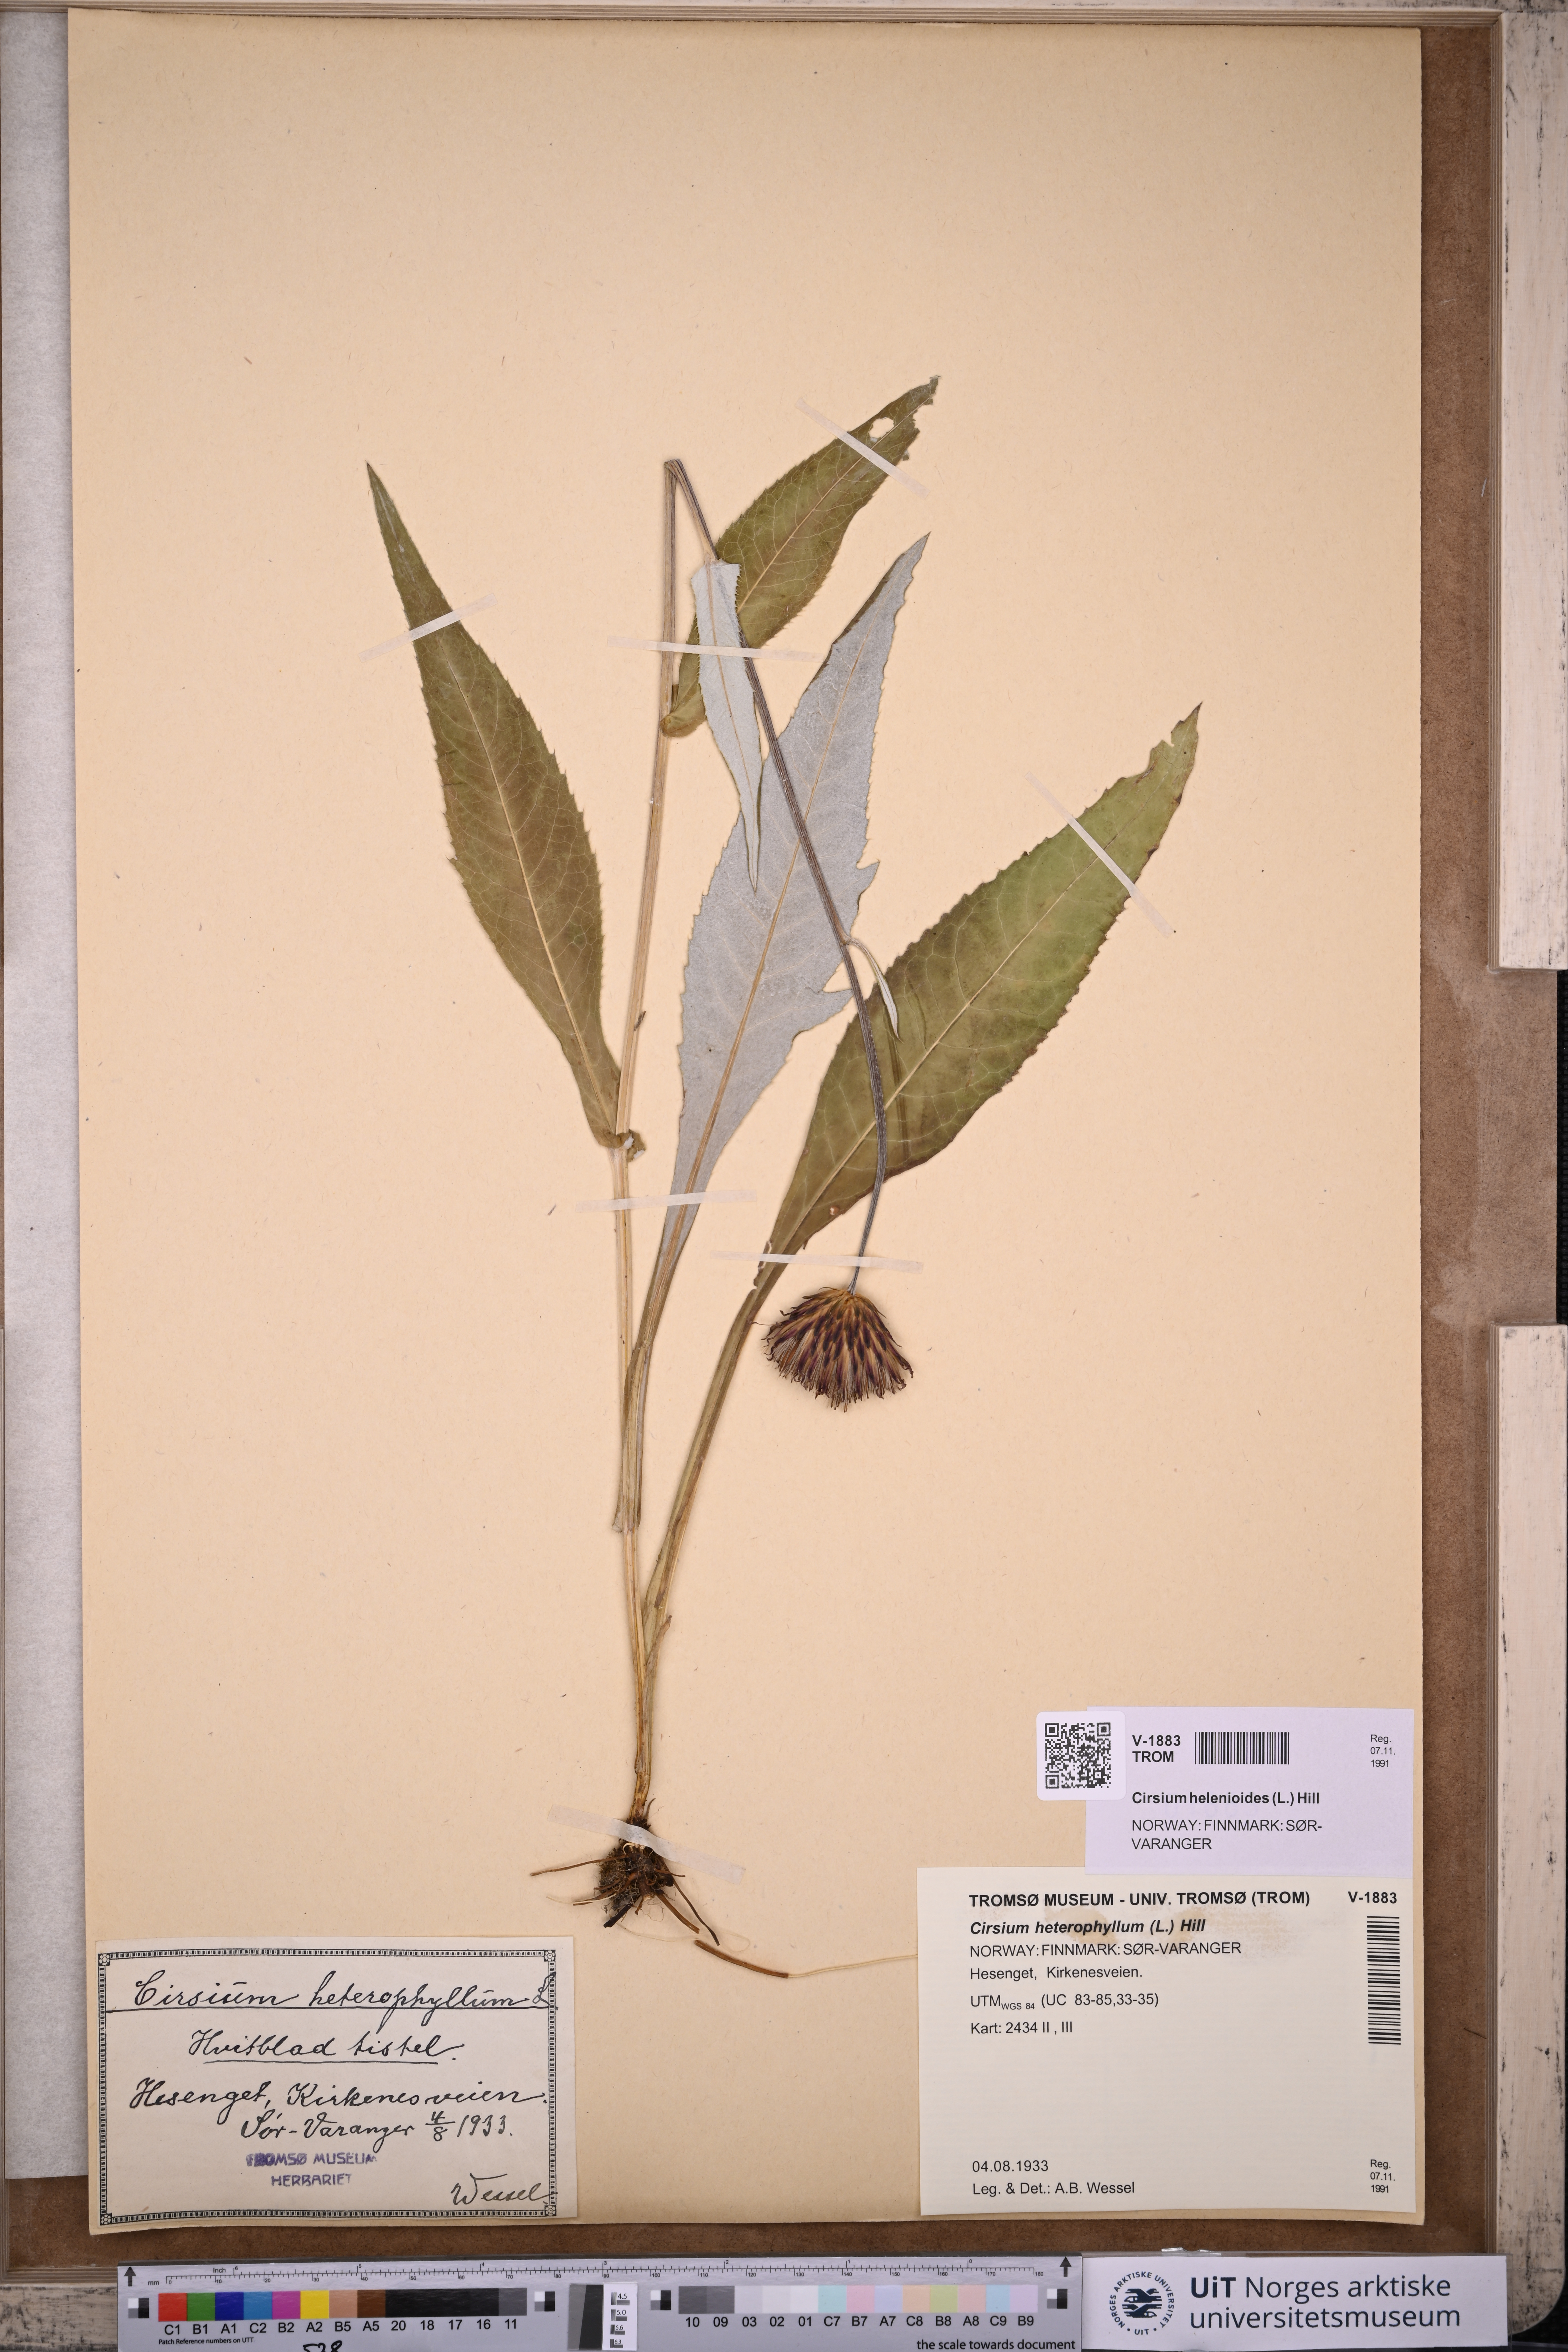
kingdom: Plantae
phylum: Tracheophyta
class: Magnoliopsida
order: Asterales
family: Asteraceae
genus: Cirsium
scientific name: Cirsium heterophyllum
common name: Melancholy thistle
